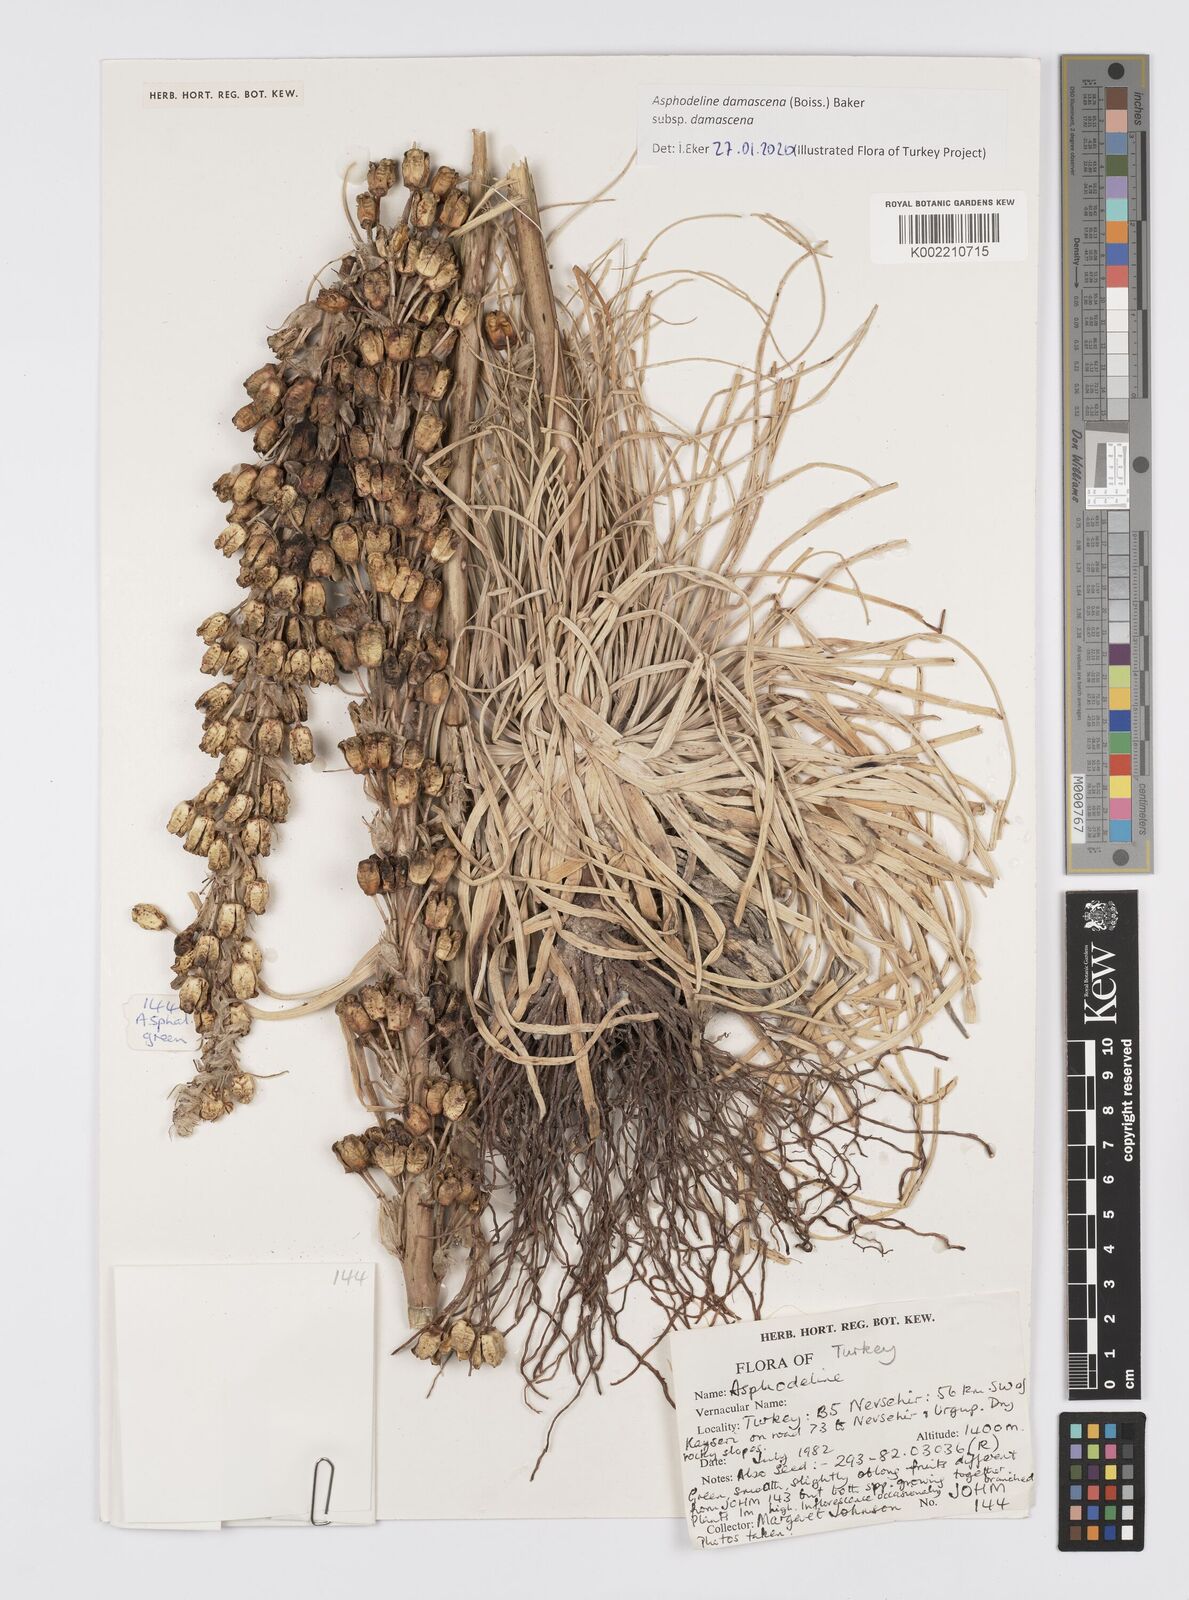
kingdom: Plantae
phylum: Tracheophyta
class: Liliopsida
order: Asparagales
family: Asphodelaceae
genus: Asphodeline
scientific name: Asphodeline damascena
